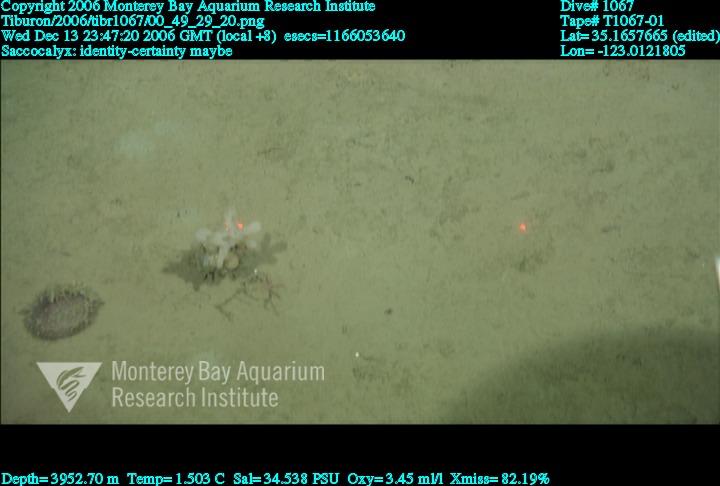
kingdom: Animalia
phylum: Porifera
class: Hexactinellida
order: Lyssacinosida
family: Euplectellidae
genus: Saccocalyx
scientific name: Saccocalyx
